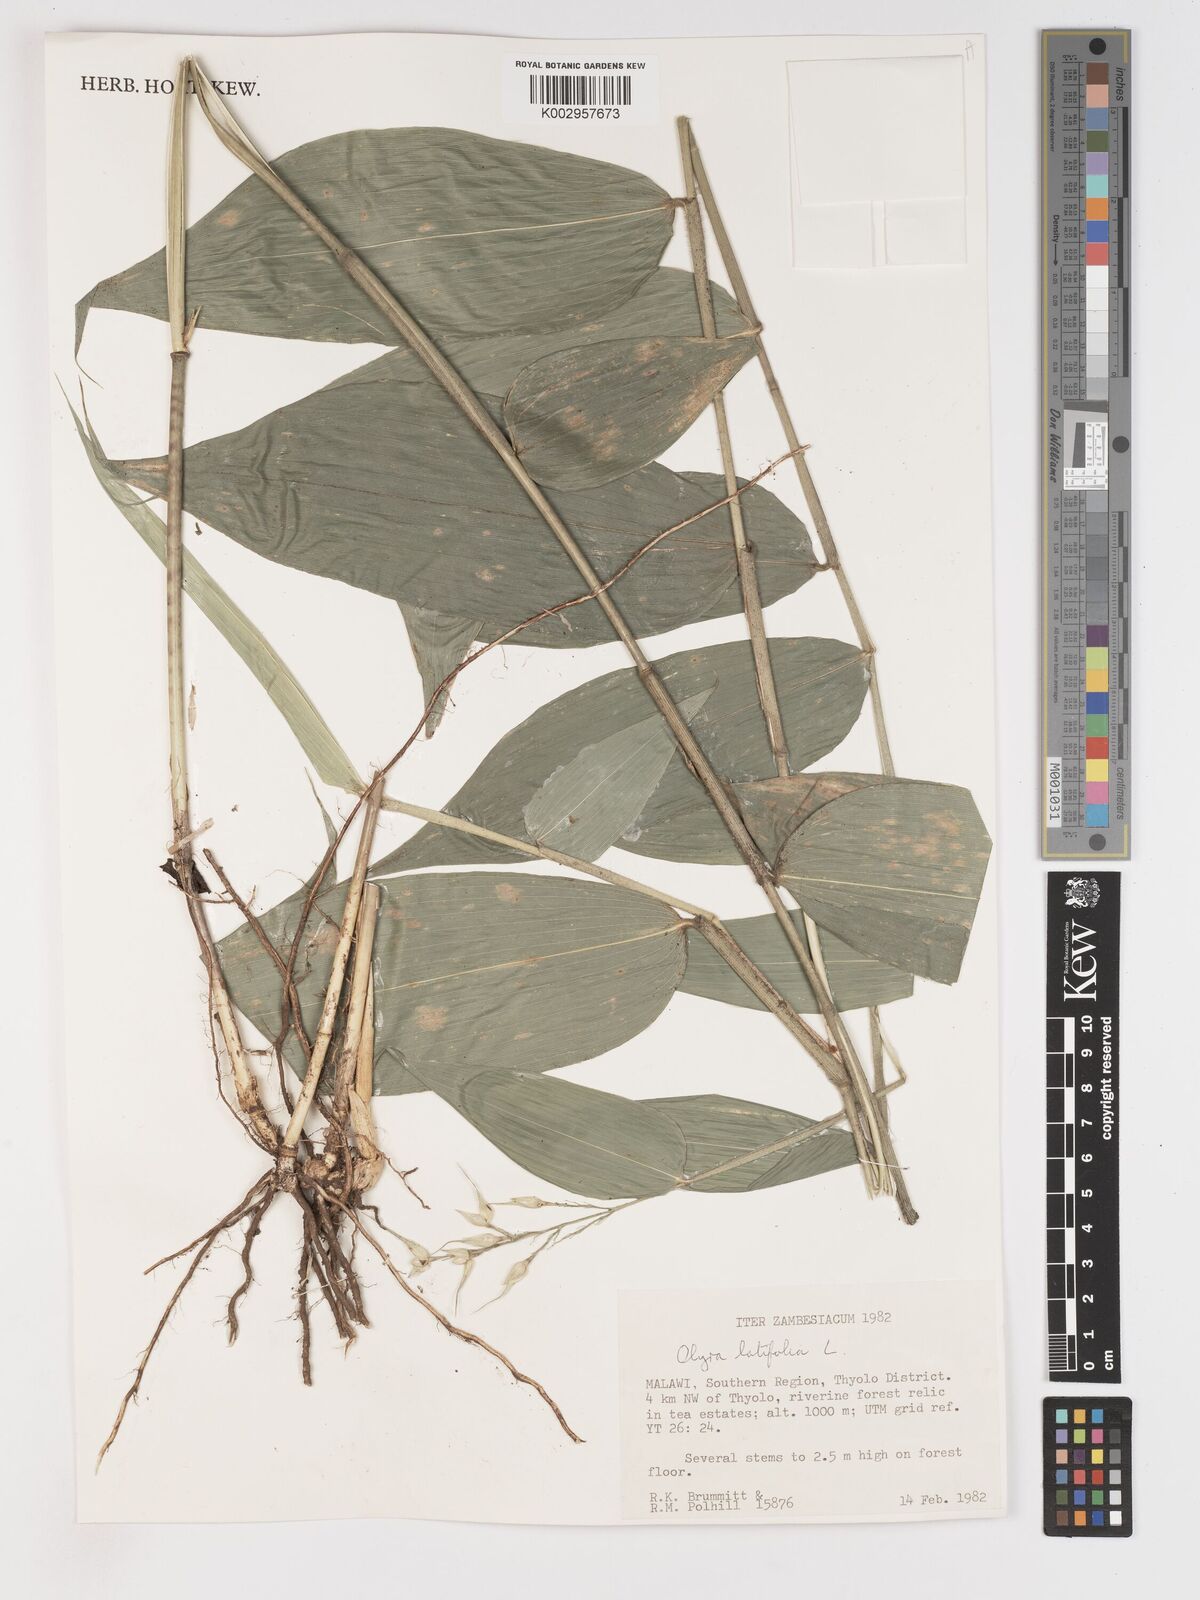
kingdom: Plantae
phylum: Tracheophyta
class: Liliopsida
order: Poales
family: Poaceae
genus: Olyra
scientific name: Olyra latifolia
